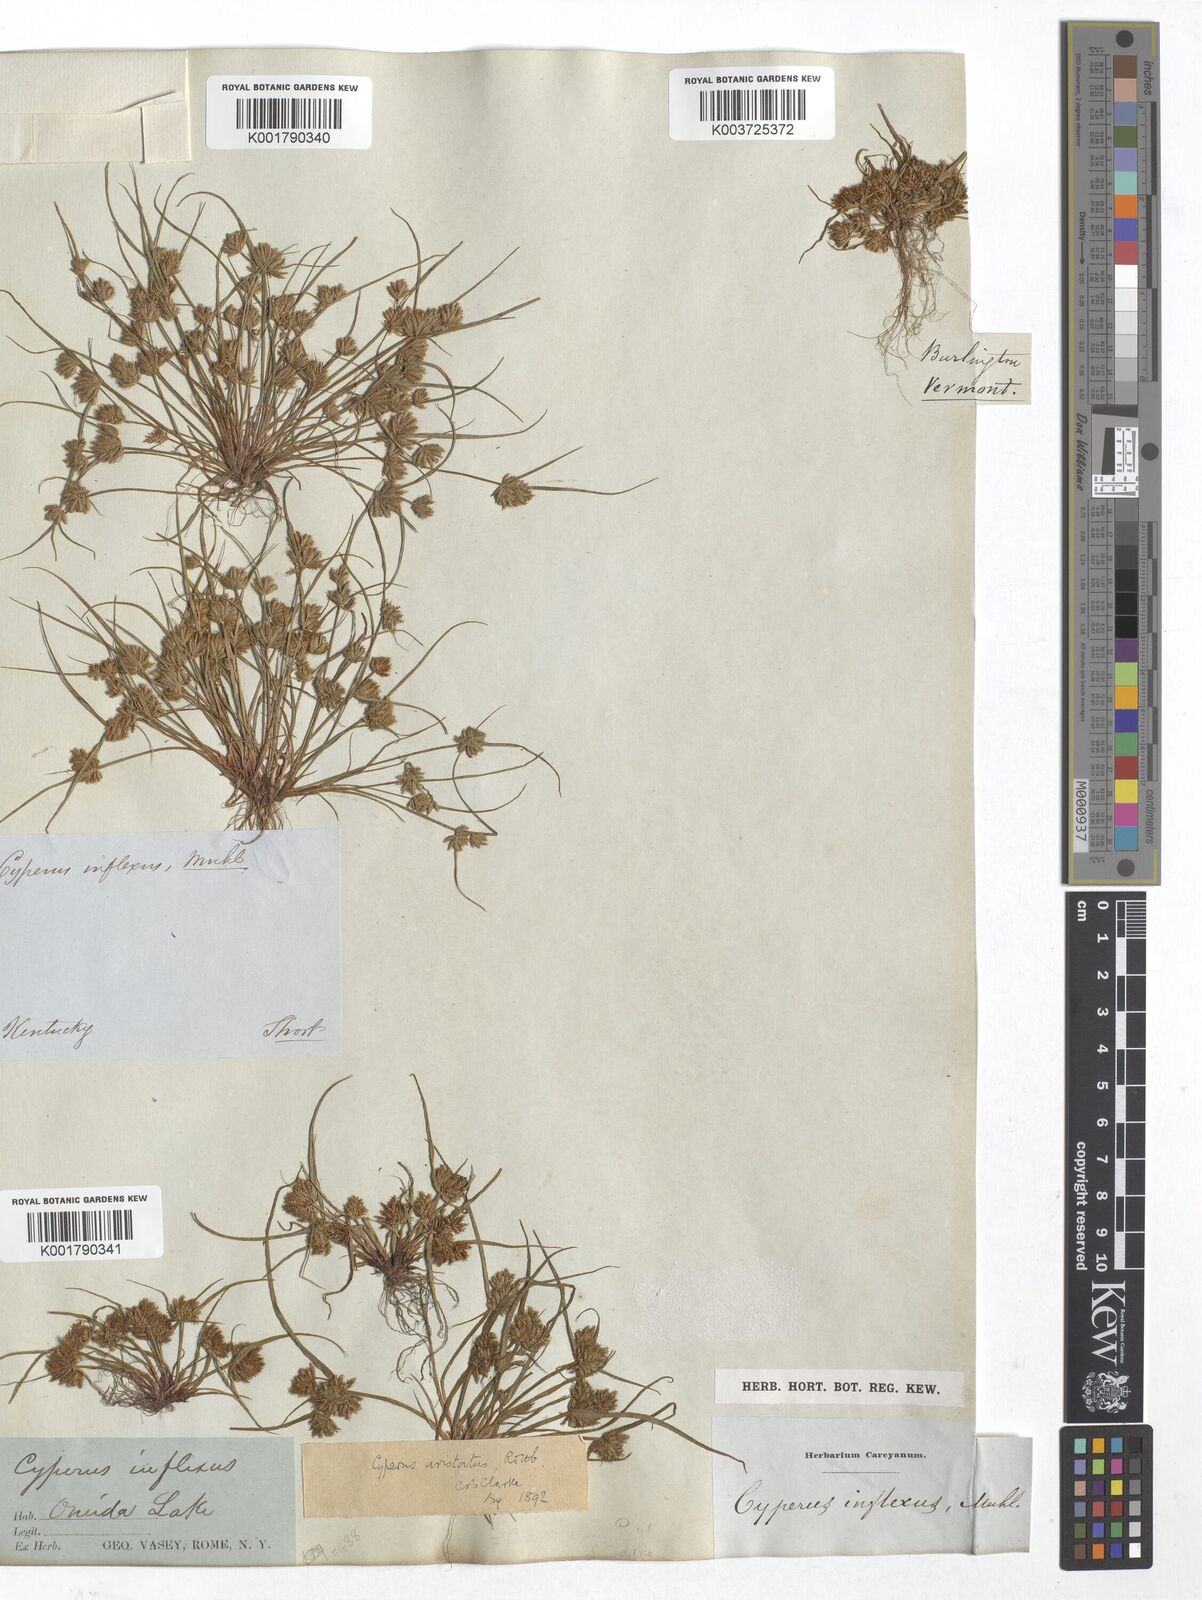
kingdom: Plantae
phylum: Tracheophyta
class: Liliopsida
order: Poales
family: Cyperaceae
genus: Cyperus
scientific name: Cyperus squarrosus
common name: Awned cyperus
